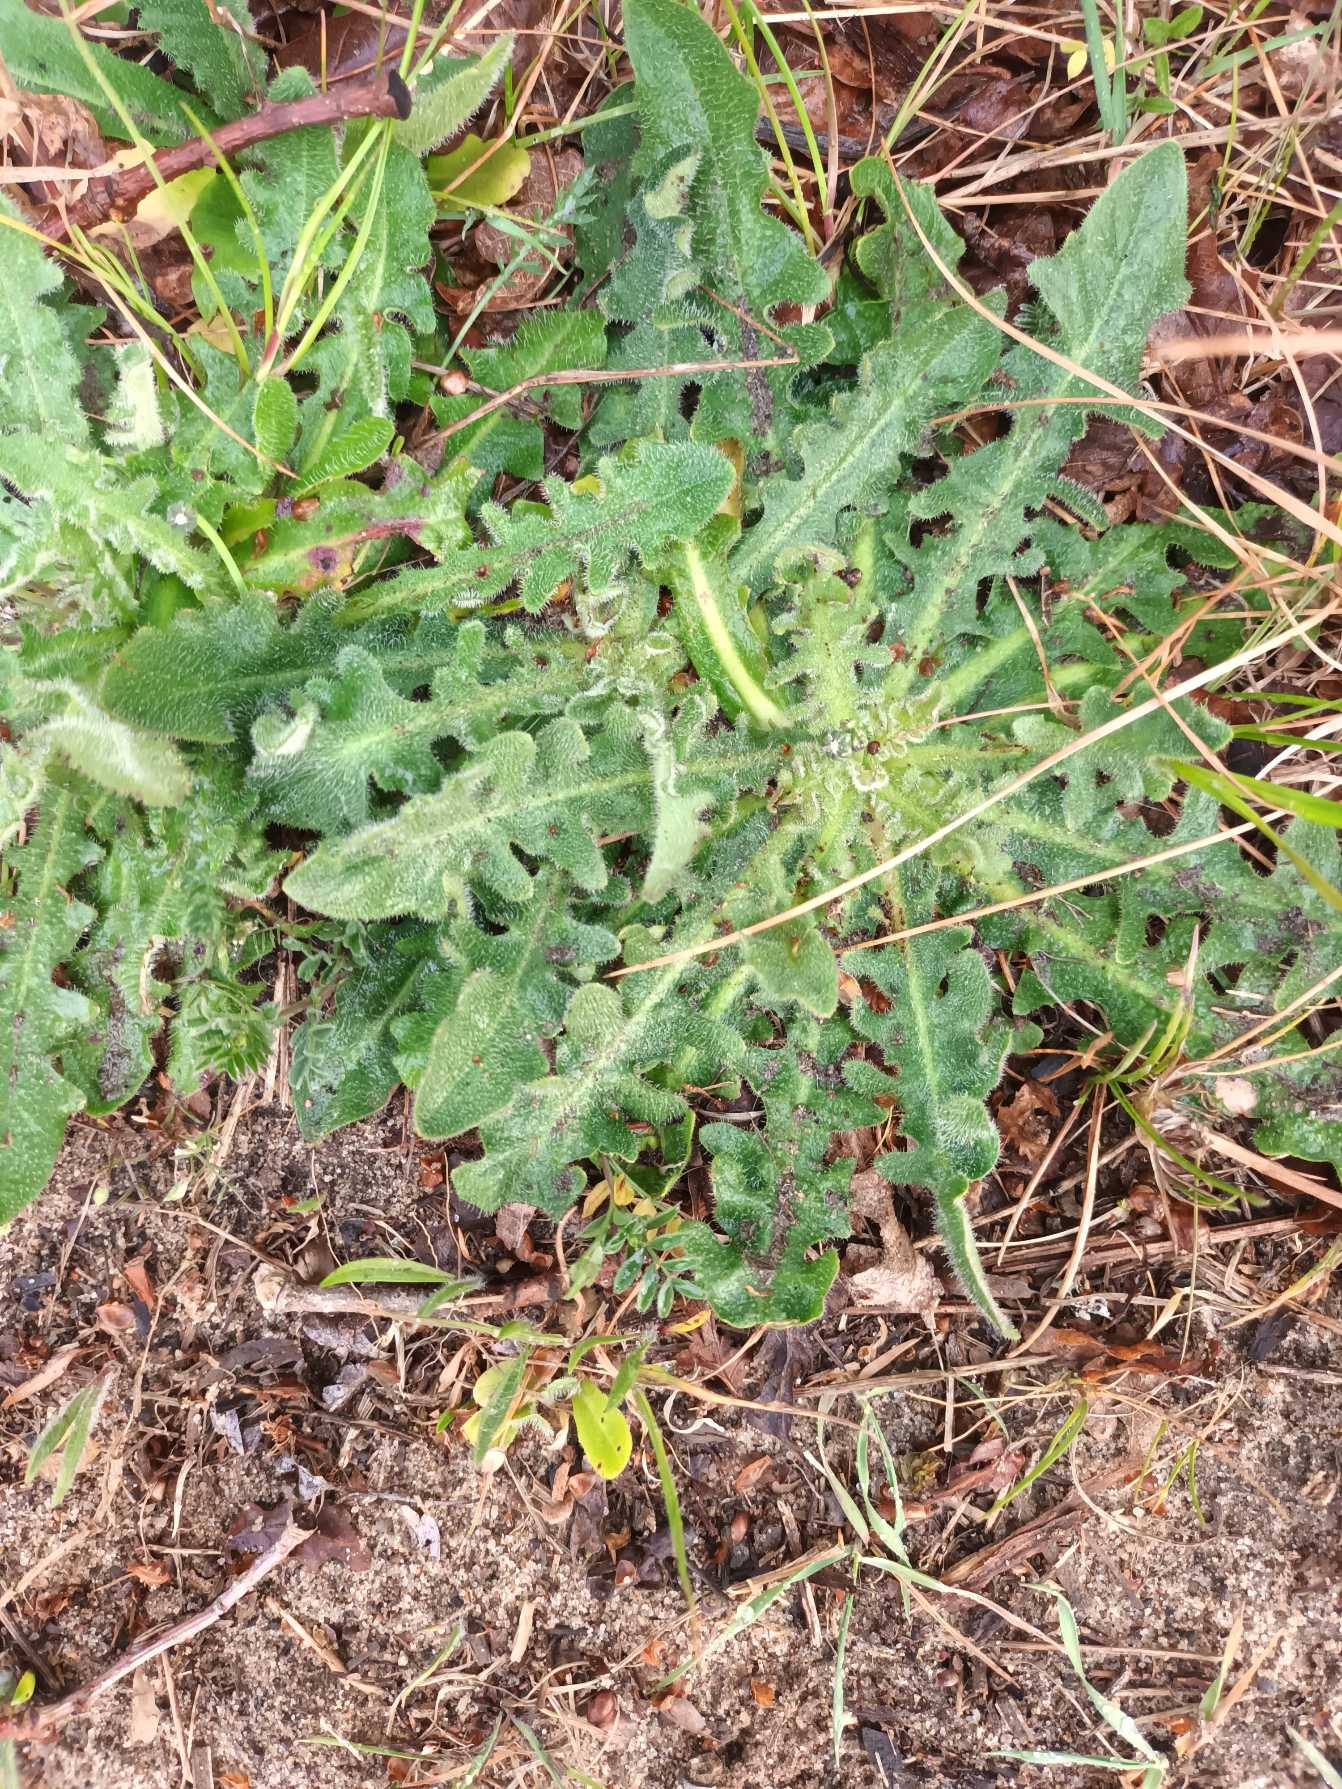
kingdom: Plantae
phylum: Tracheophyta
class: Magnoliopsida
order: Asterales
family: Asteraceae
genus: Hypochaeris
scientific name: Hypochaeris radicata
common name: Almindelig kongepen
